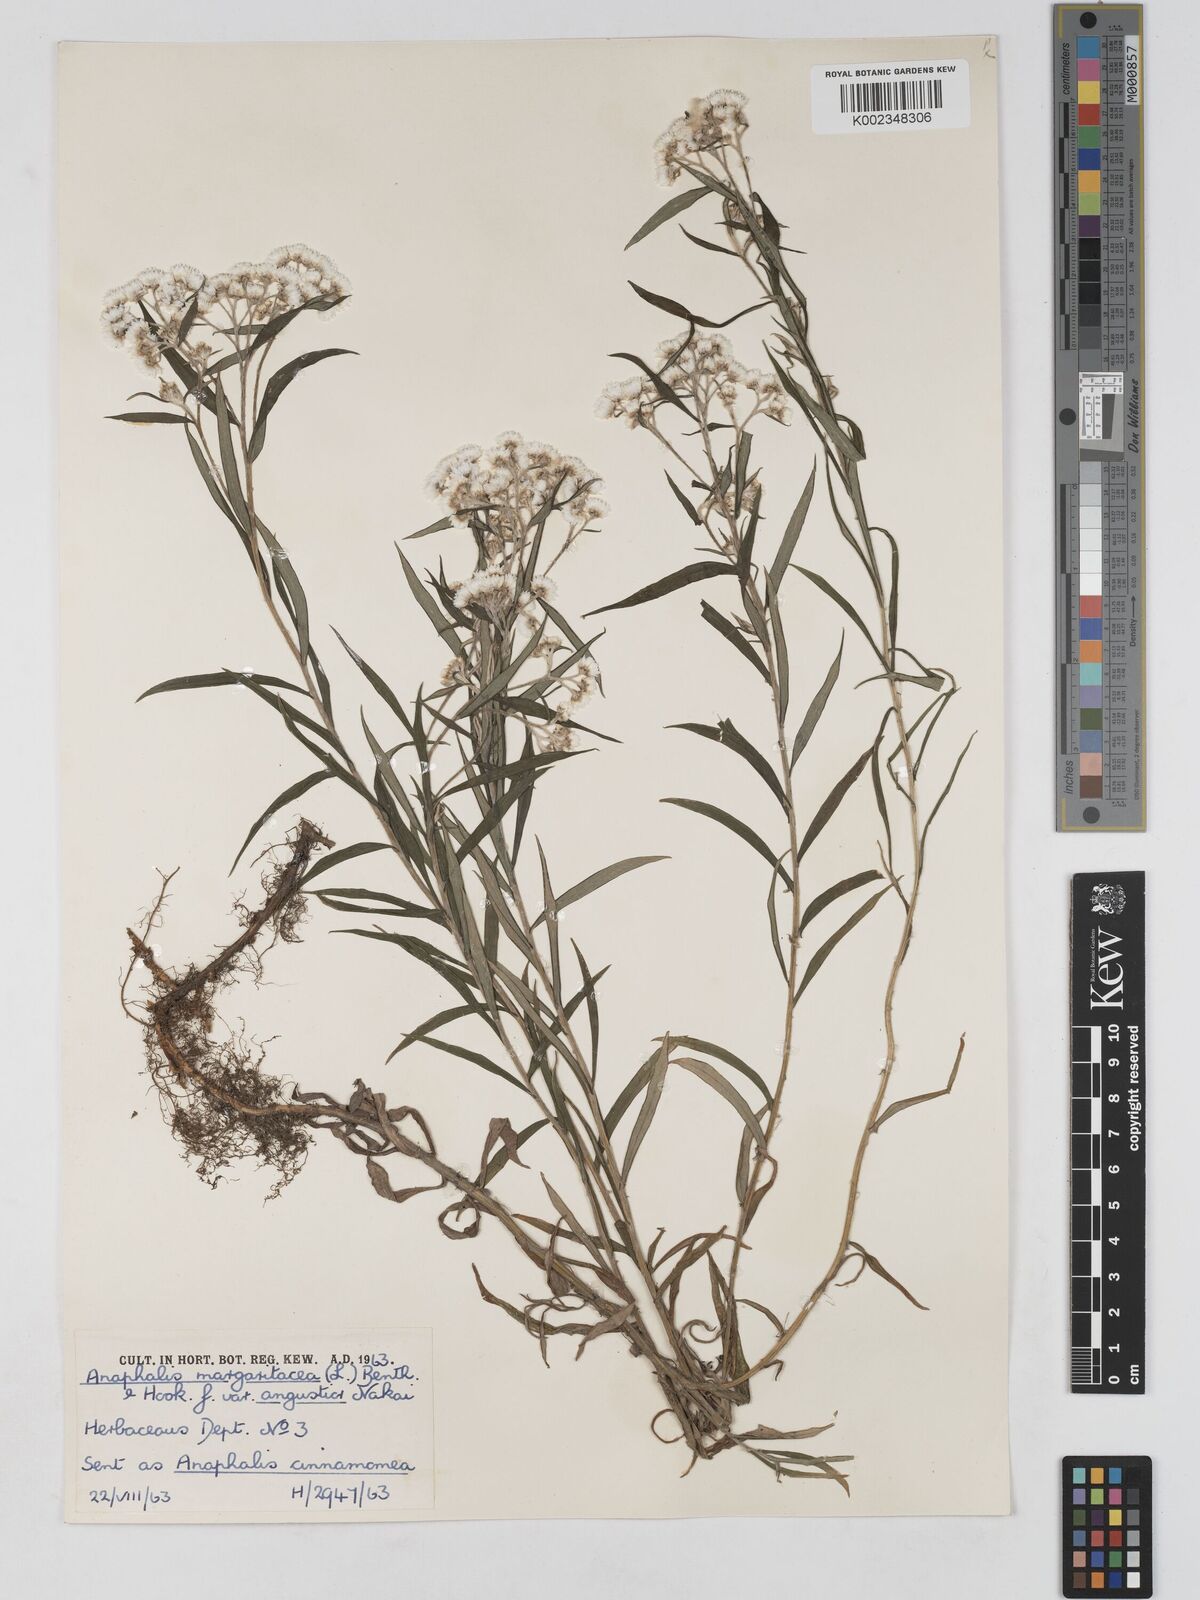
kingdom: Plantae
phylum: Tracheophyta
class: Magnoliopsida
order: Asterales
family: Asteraceae
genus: Anaphalis
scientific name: Anaphalis margaritacea
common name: Pearly everlasting
